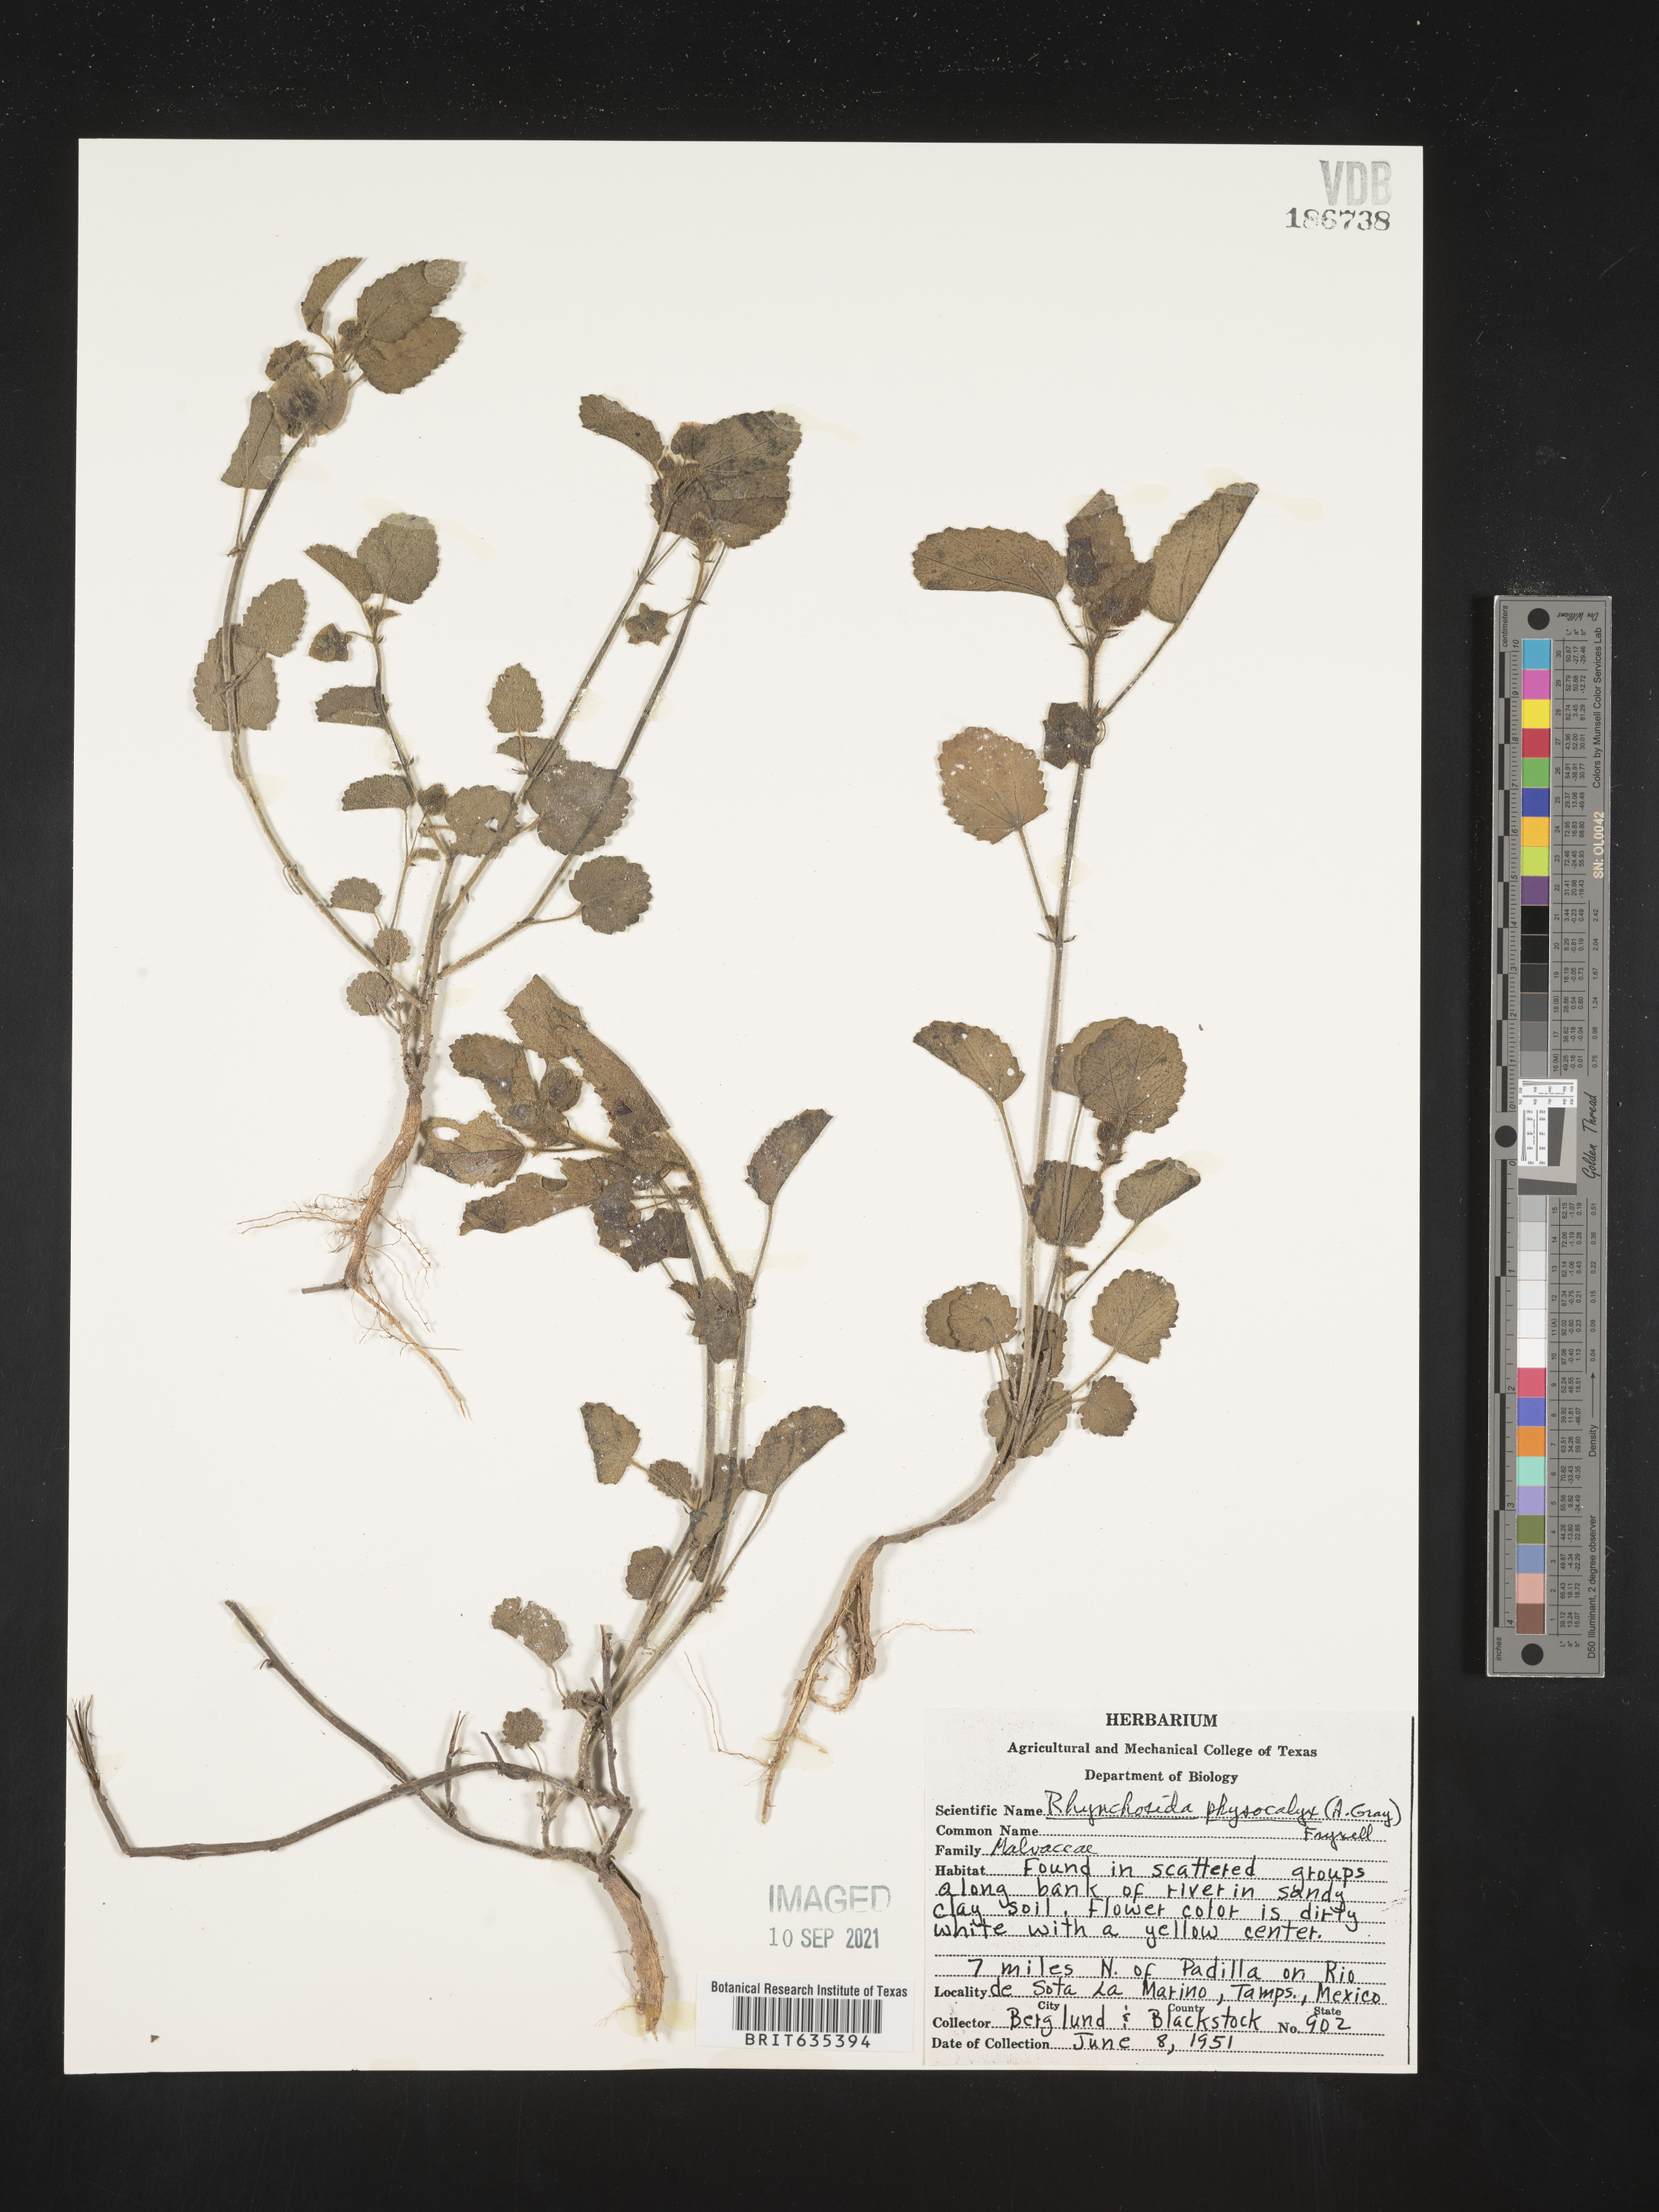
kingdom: Plantae
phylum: Tracheophyta
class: Magnoliopsida
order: Malvales
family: Malvaceae
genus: Rhynchosida
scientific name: Rhynchosida
